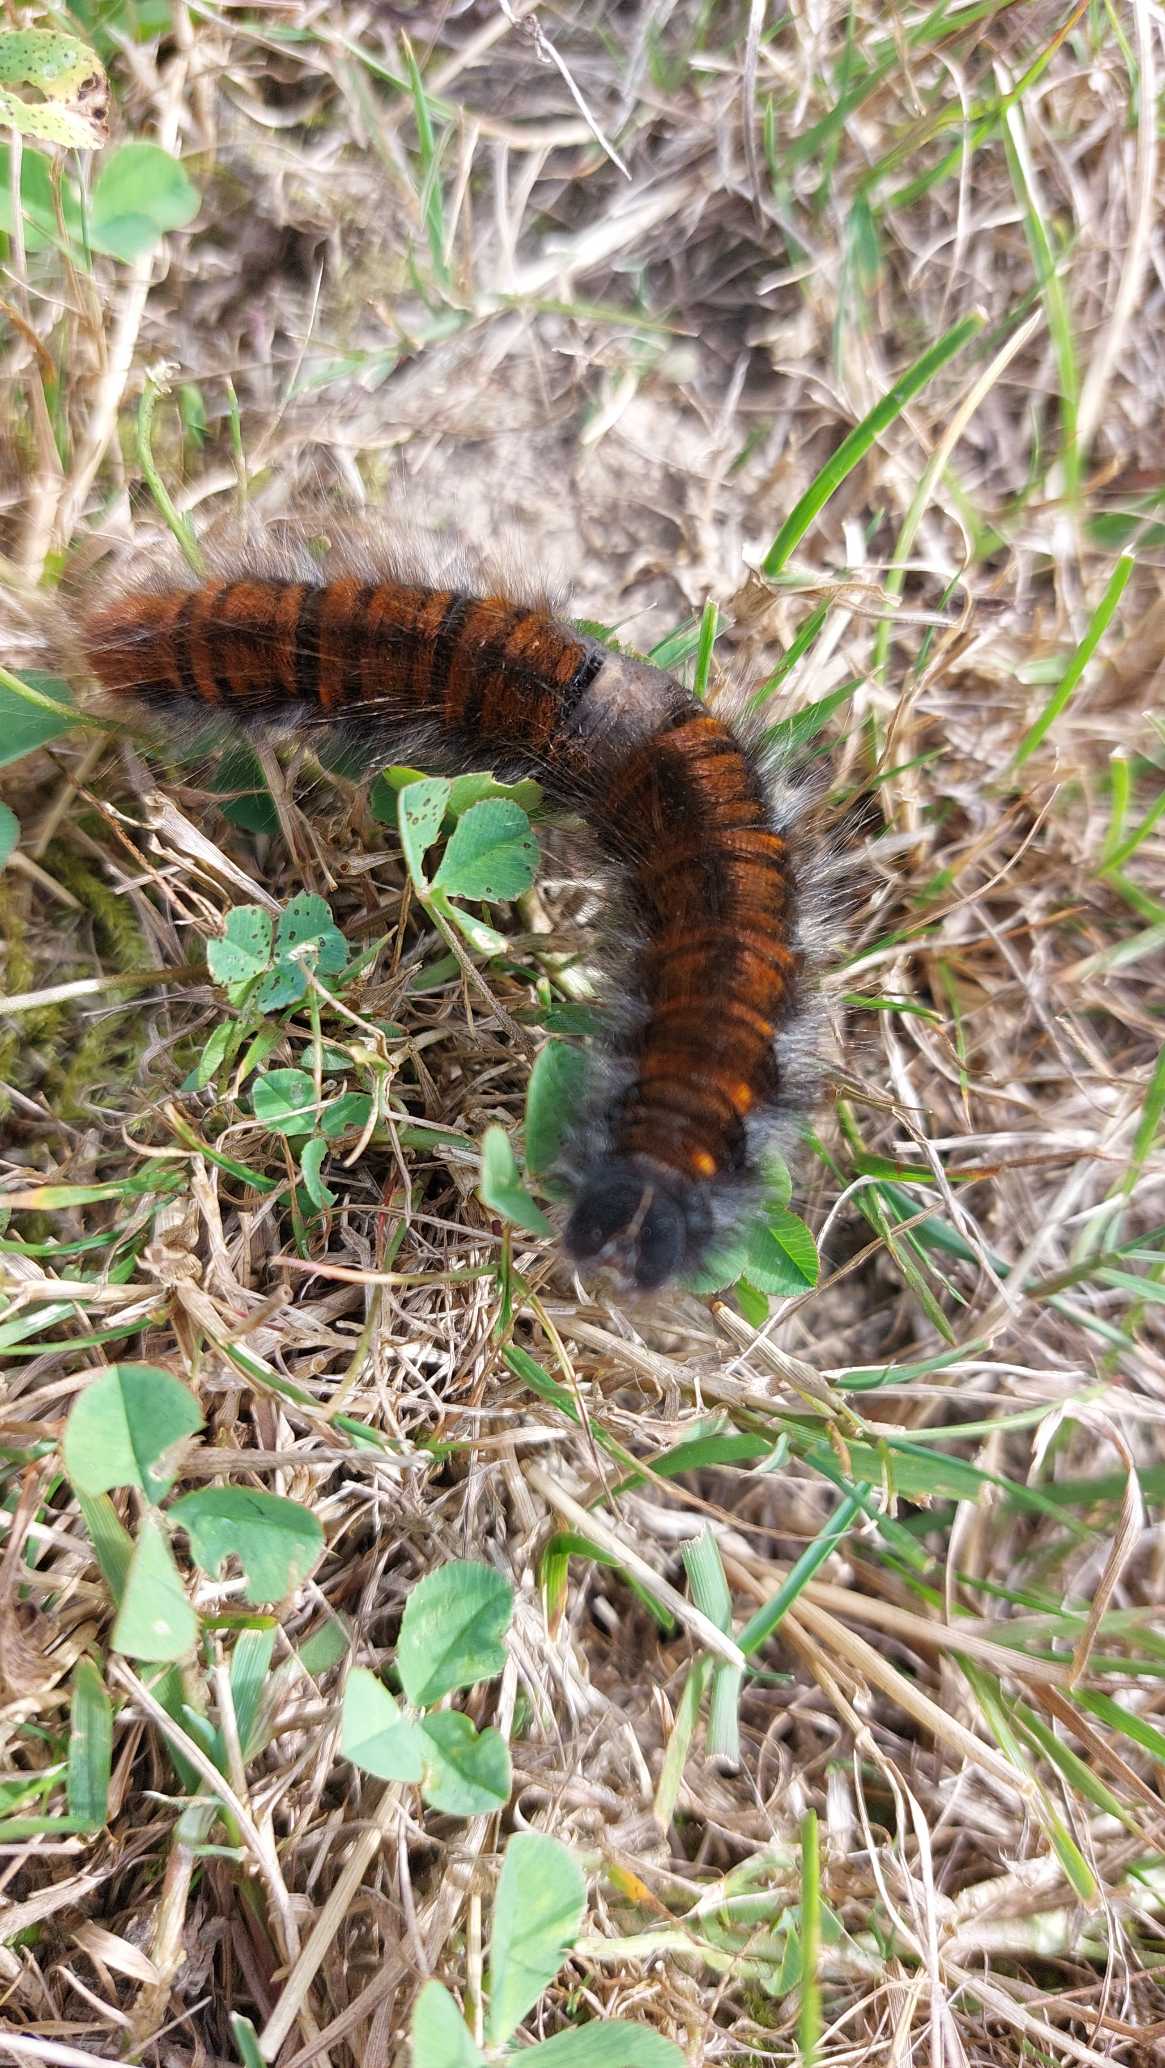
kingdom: Animalia
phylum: Arthropoda
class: Insecta
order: Lepidoptera
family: Lasiocampidae
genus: Macrothylacia
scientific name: Macrothylacia rubi
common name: Brombærspinder
